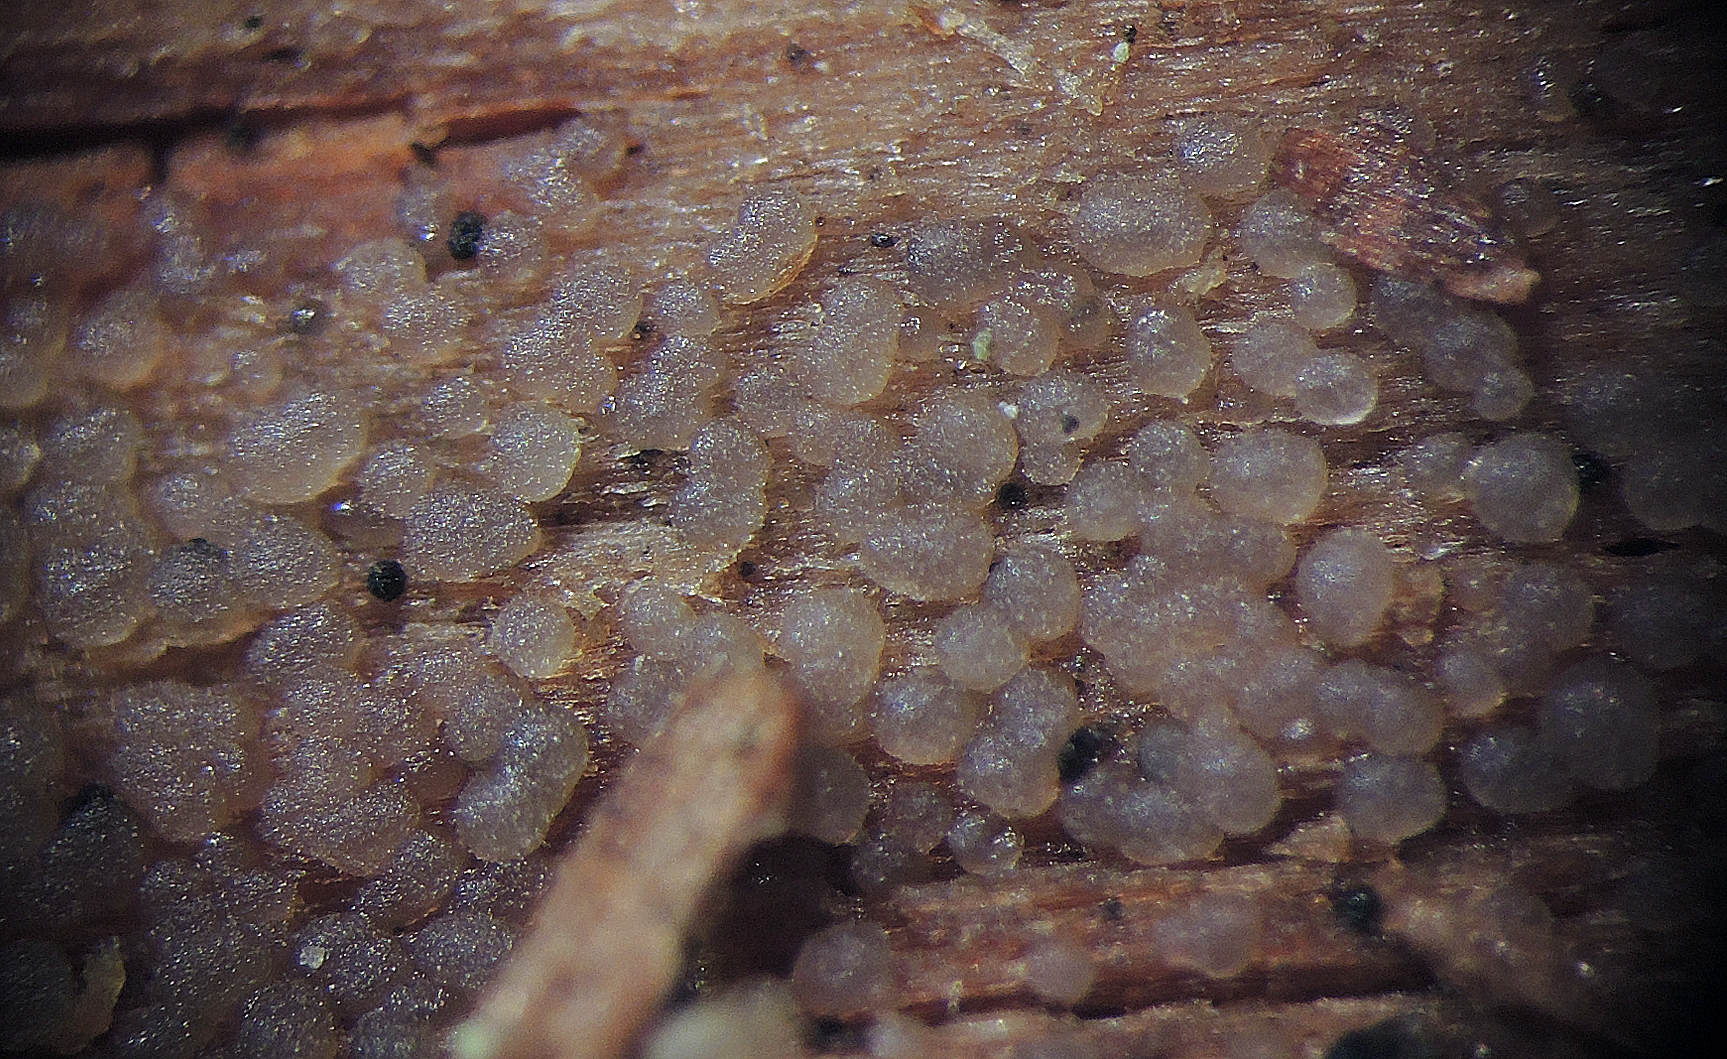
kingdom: Fungi
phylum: Basidiomycota
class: Dacrymycetes
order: Dacrymycetales
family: Cerinomycetaceae
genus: Cerinomyces
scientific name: Cerinomyces tortus
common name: grumset tåresvamp
